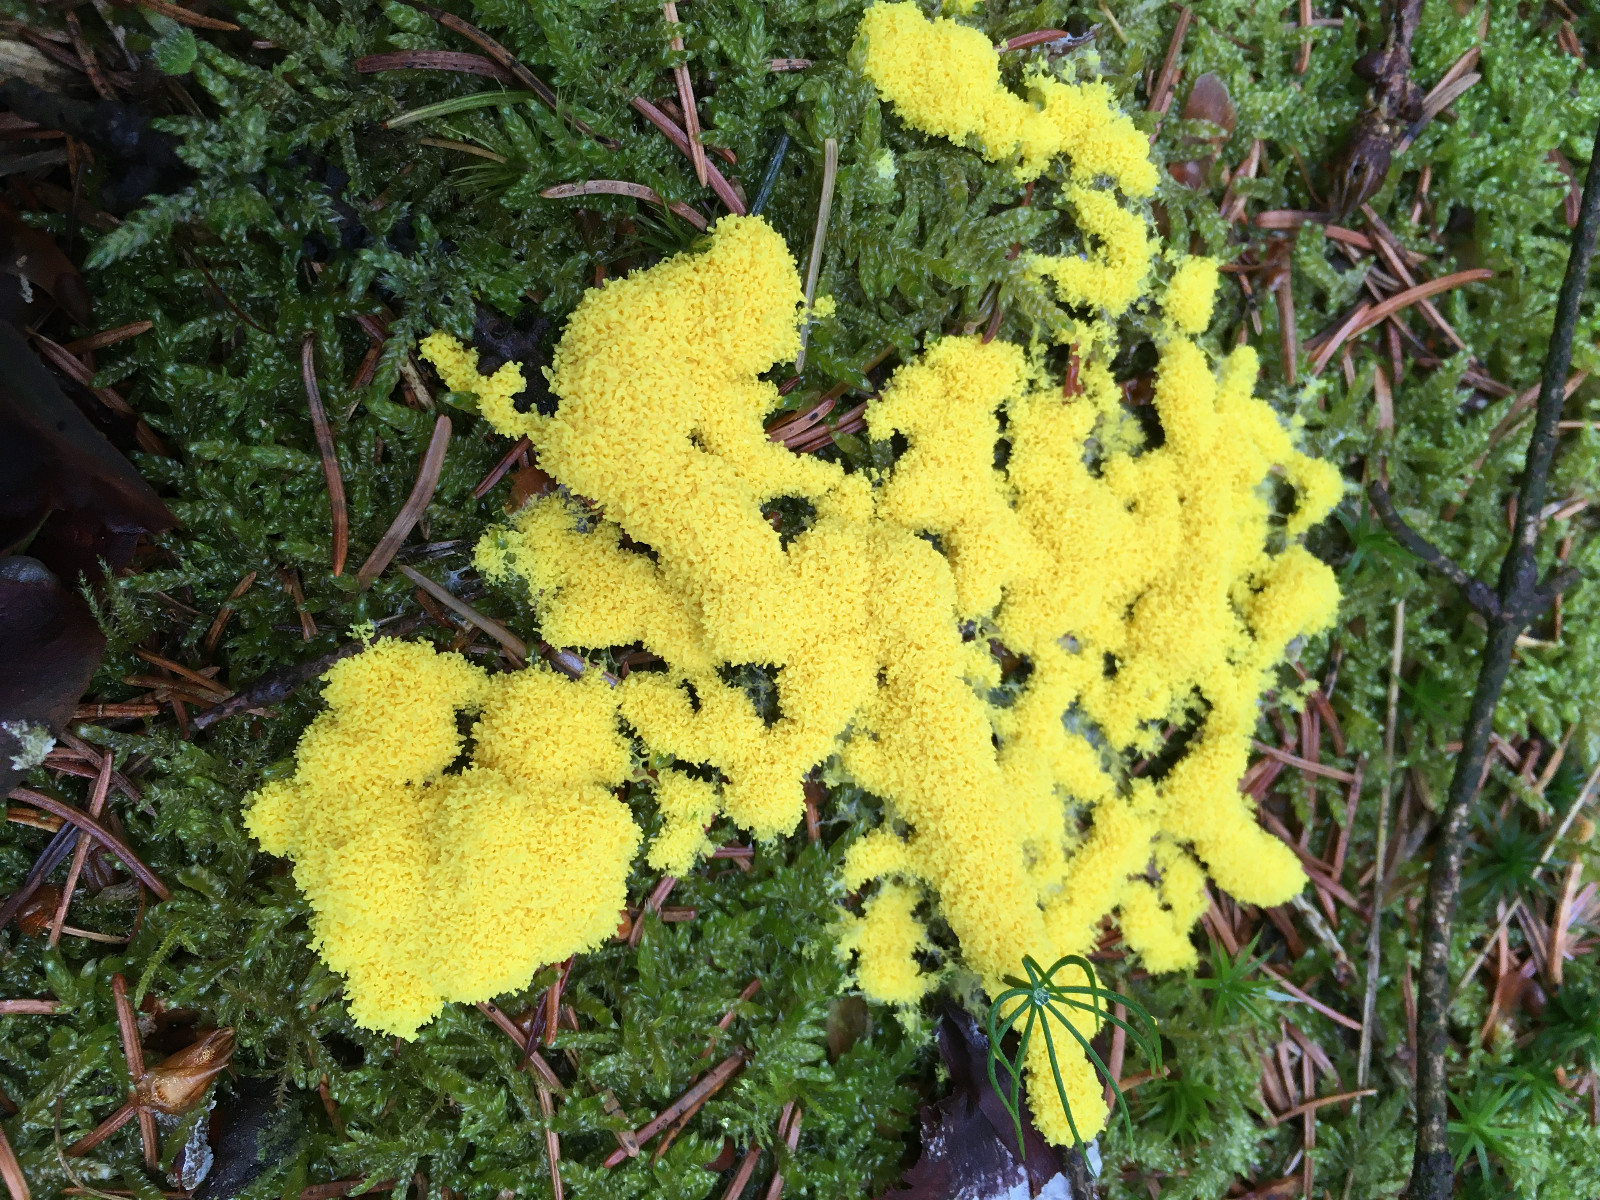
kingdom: Protozoa
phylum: Mycetozoa
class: Myxomycetes
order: Physarales
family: Physaraceae
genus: Fuligo
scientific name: Fuligo septica
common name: gul troldsmør
